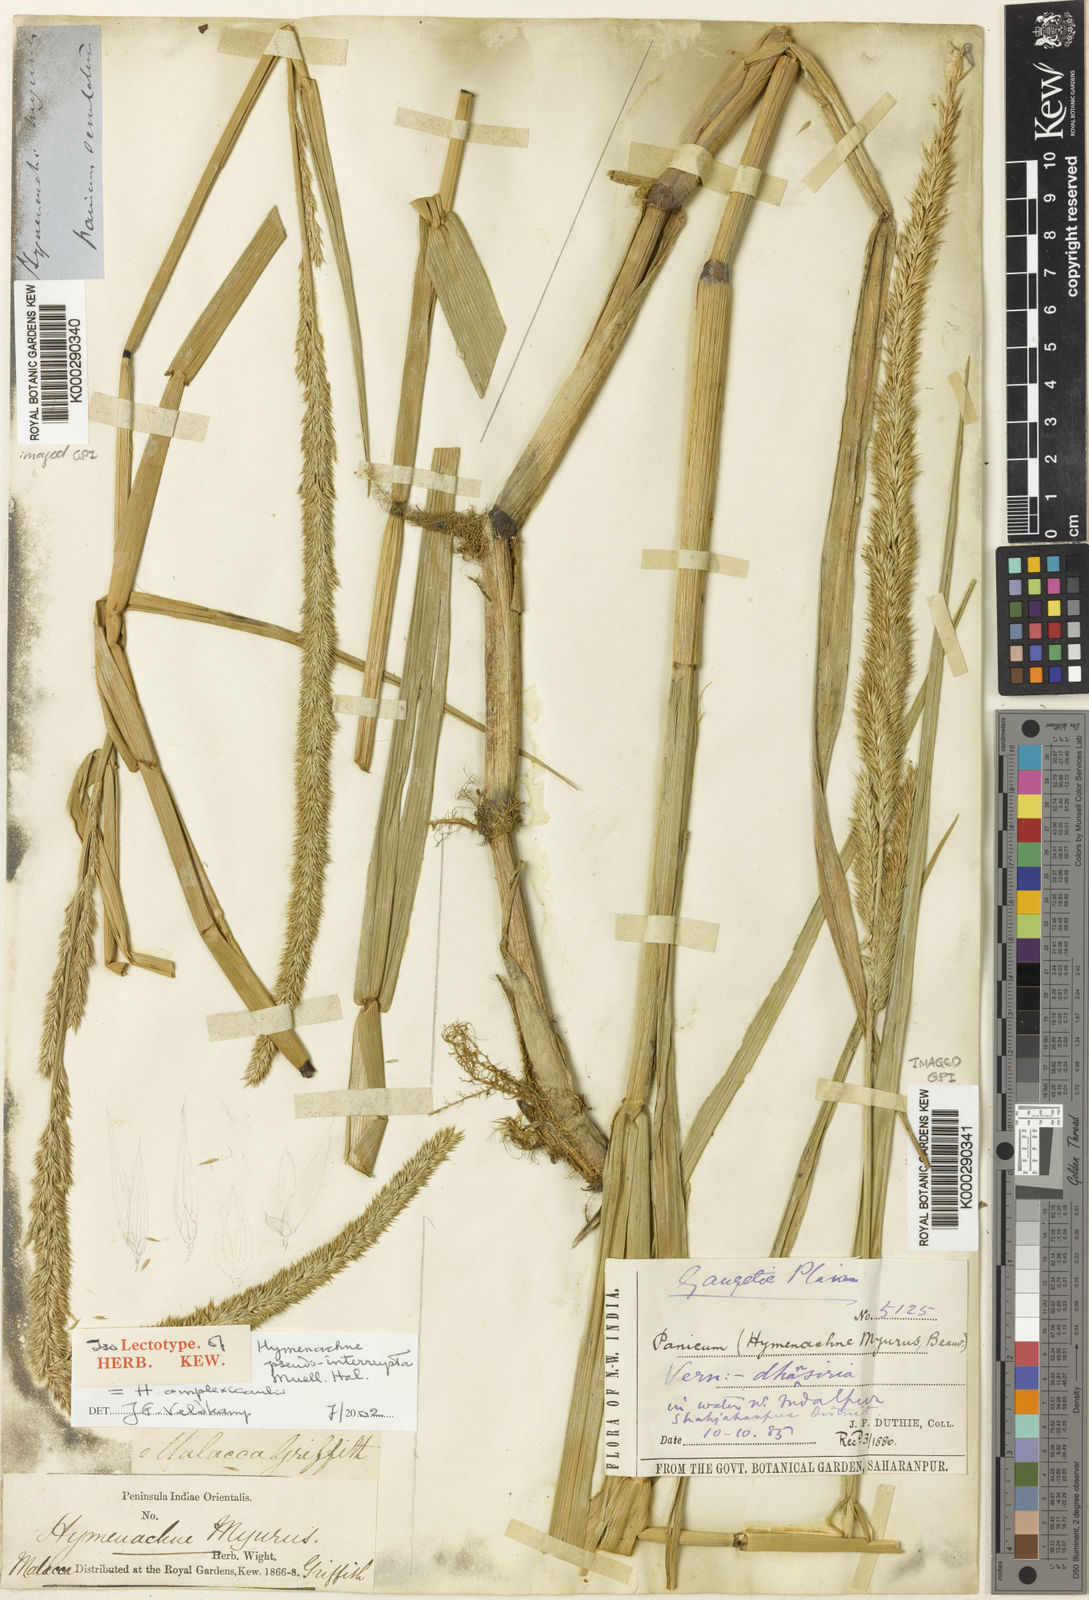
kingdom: Plantae
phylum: Tracheophyta
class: Liliopsida
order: Poales
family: Poaceae
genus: Hymenachne
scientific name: Hymenachne amplexicaulis
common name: Olive hymenachne
